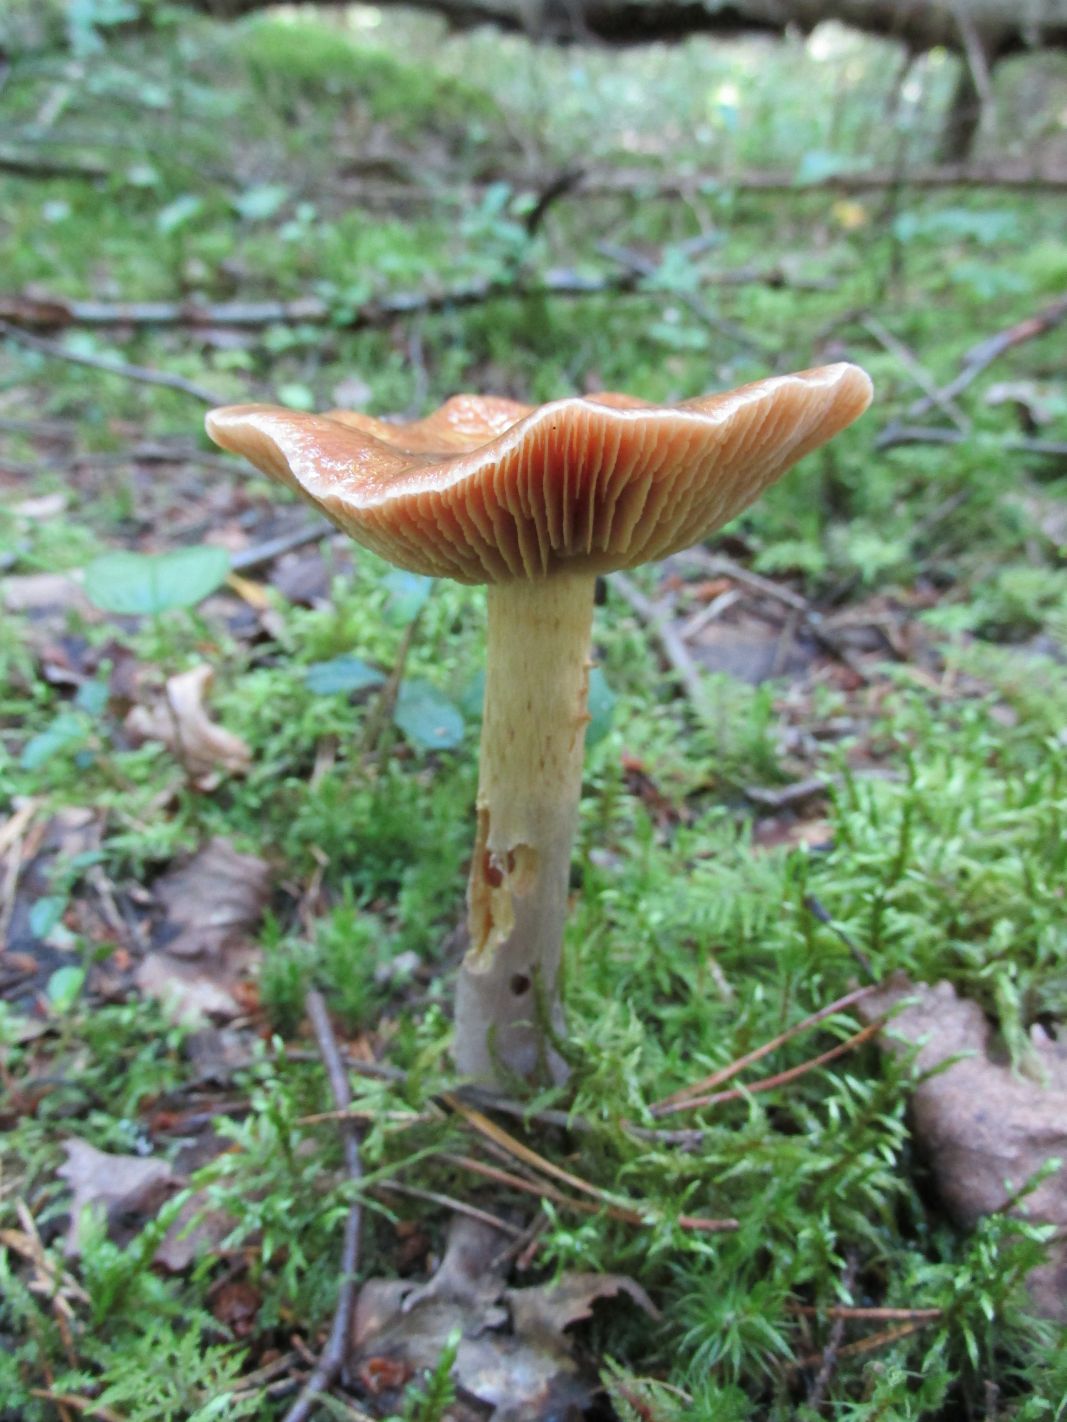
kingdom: Fungi
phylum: Basidiomycota
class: Agaricomycetes
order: Agaricales
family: Cortinariaceae
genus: Cortinarius
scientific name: Cortinarius stillatitius
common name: Purple stocking webcap
